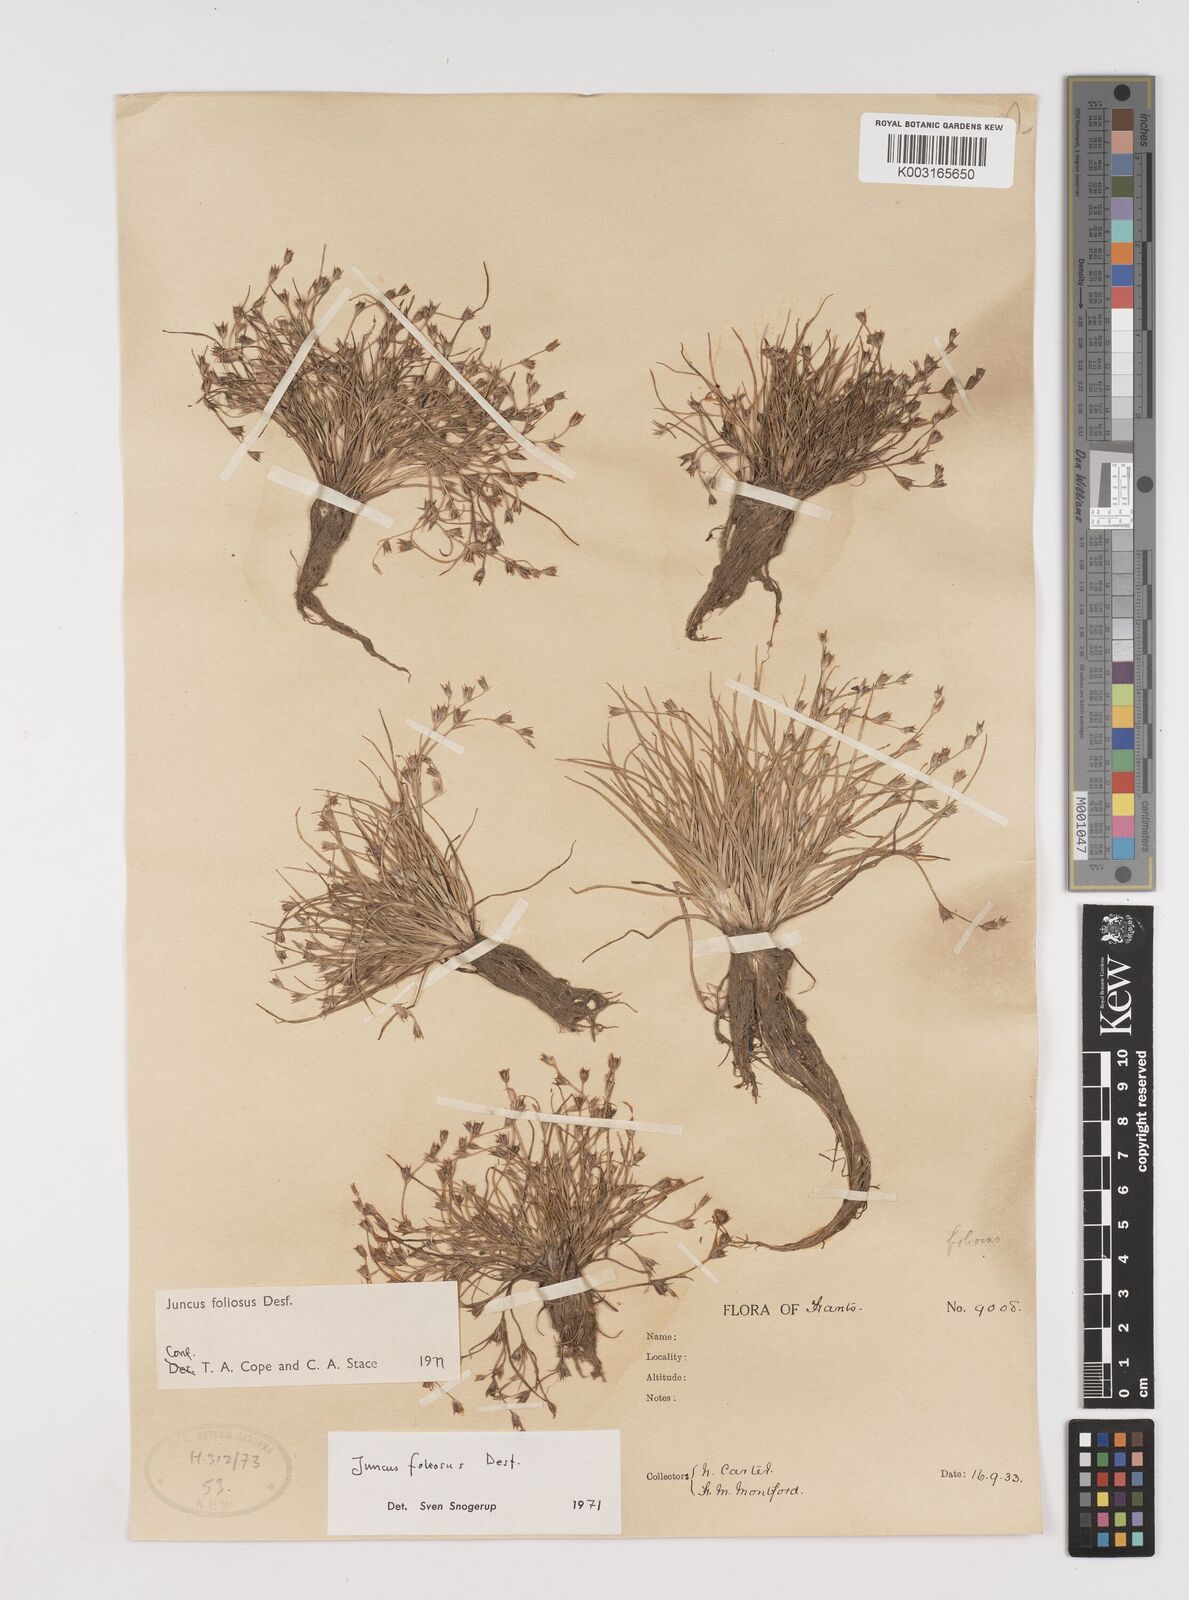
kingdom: Plantae
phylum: Tracheophyta
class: Liliopsida
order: Poales
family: Juncaceae
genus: Juncus
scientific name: Juncus foliosus
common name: Leafy rush
